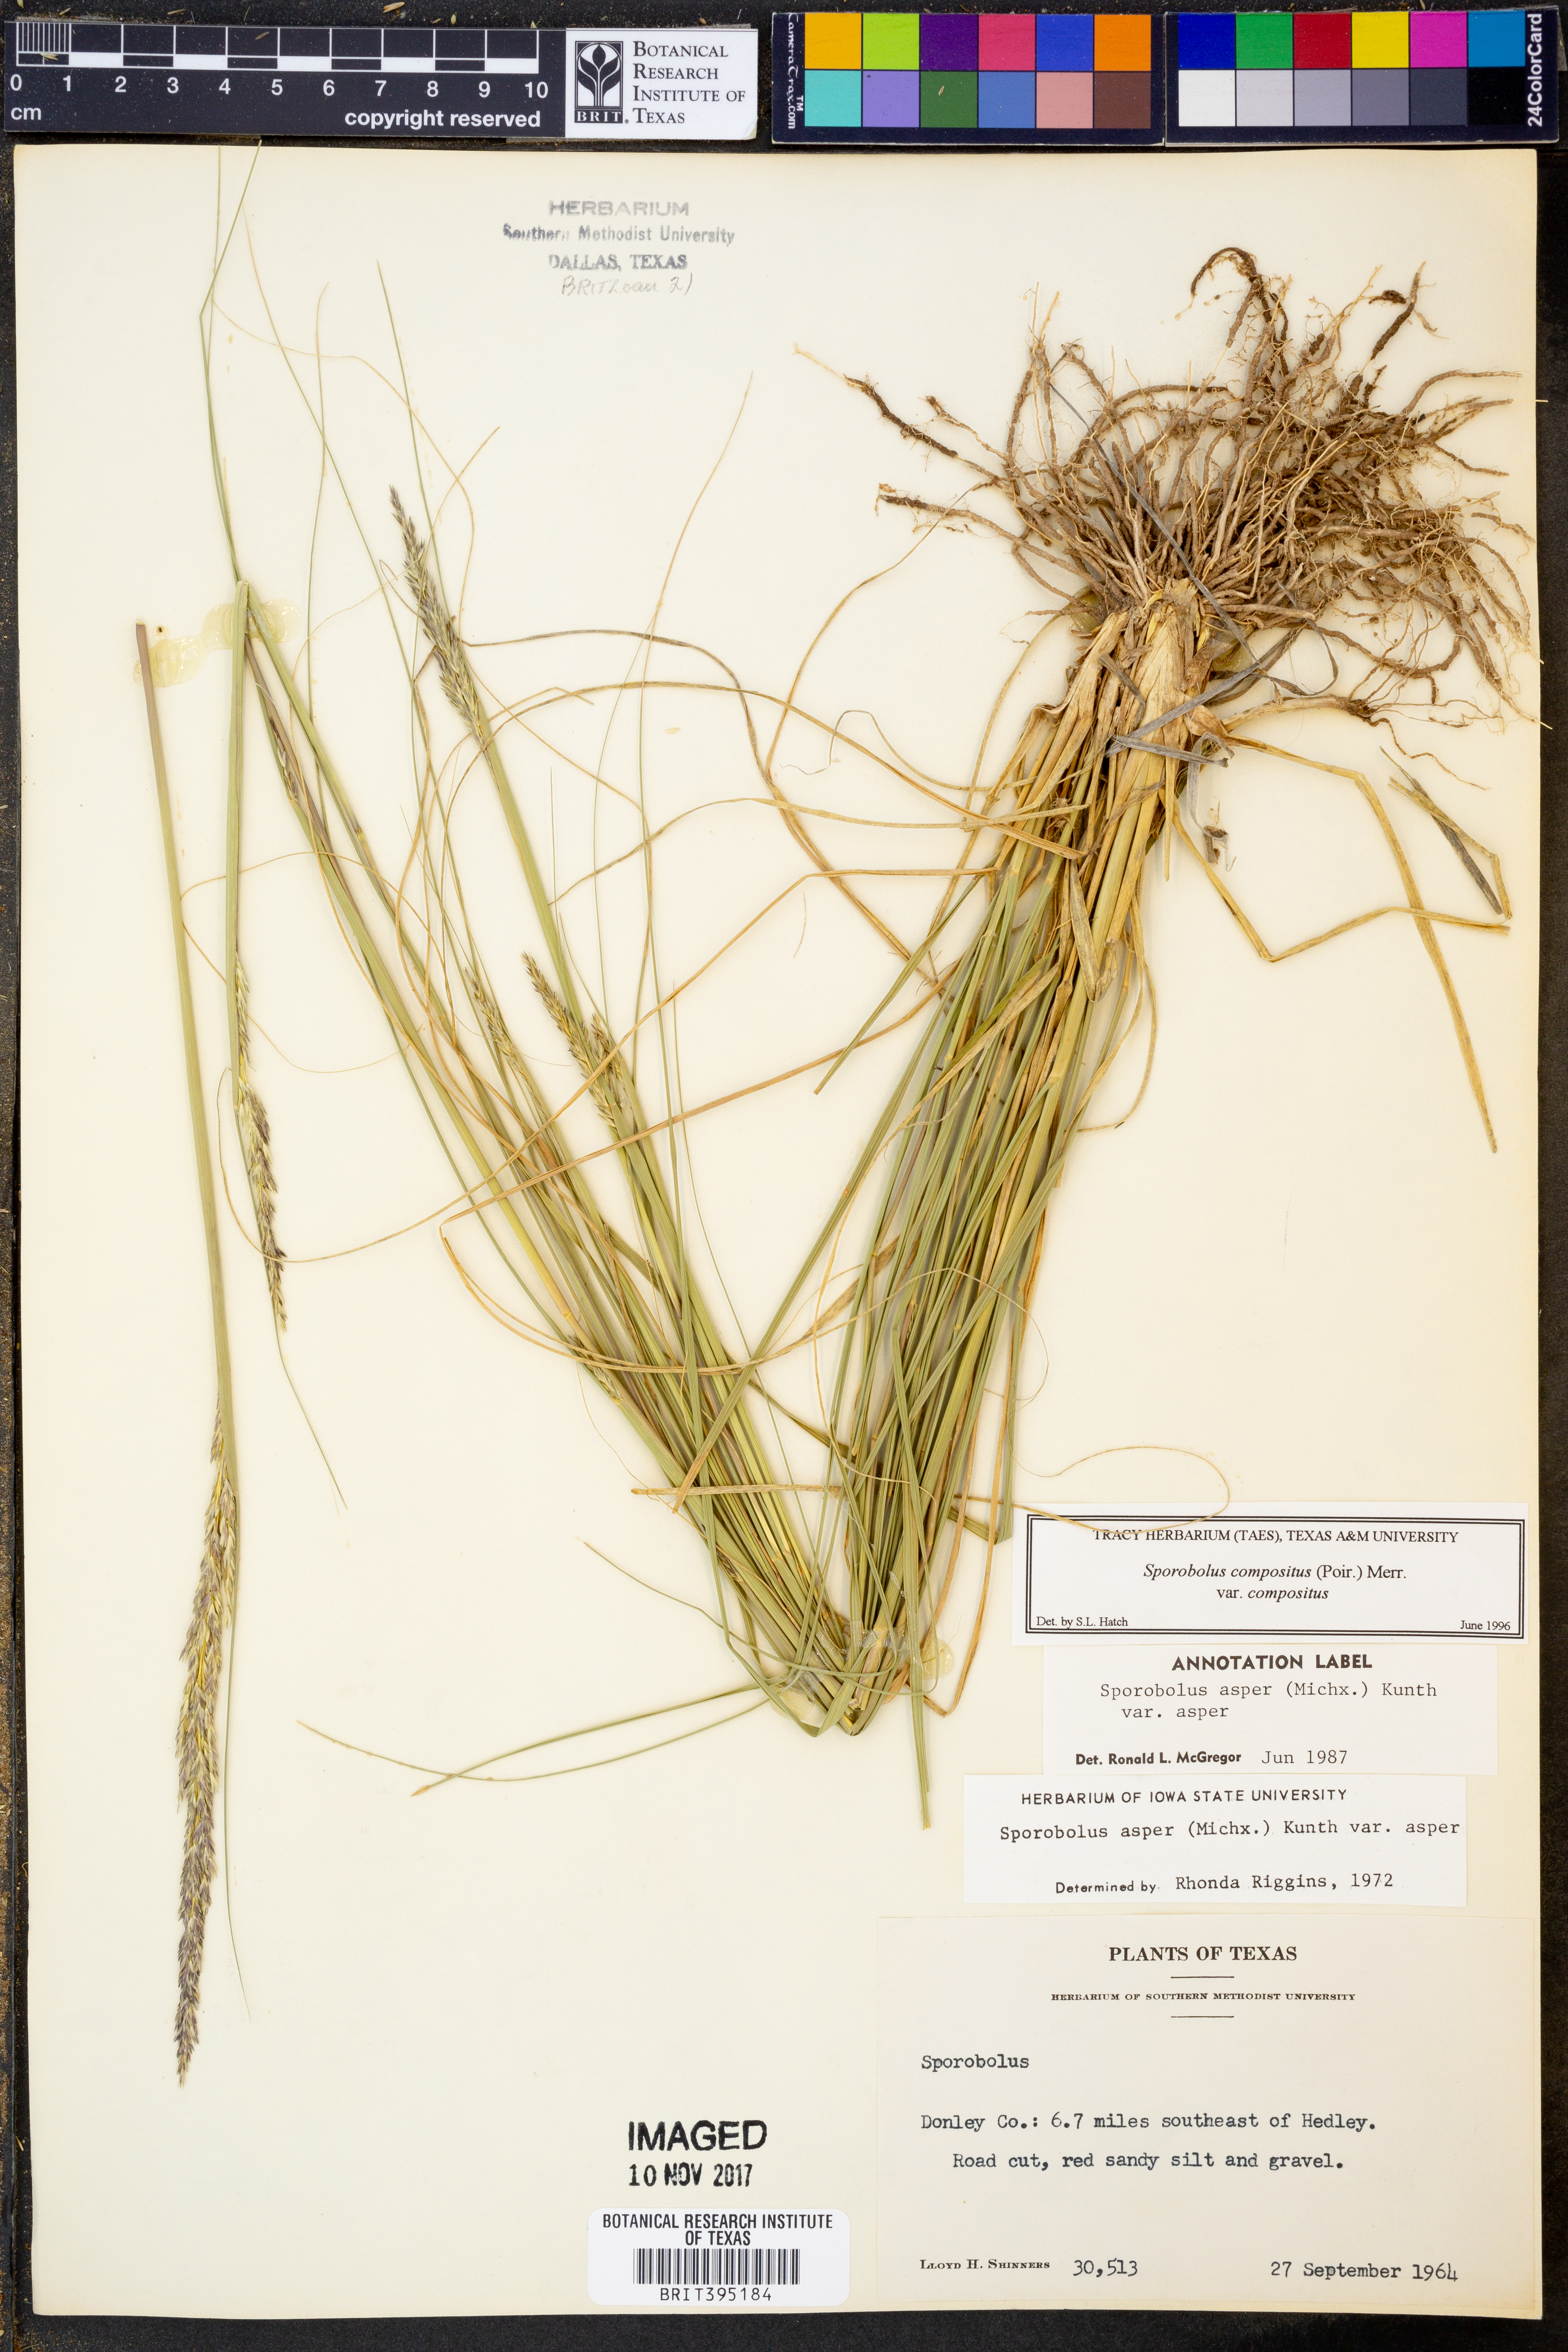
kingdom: Plantae
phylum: Tracheophyta
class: Liliopsida
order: Poales
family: Poaceae
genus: Sporobolus
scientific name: Sporobolus compositus
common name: Rough dropseed
